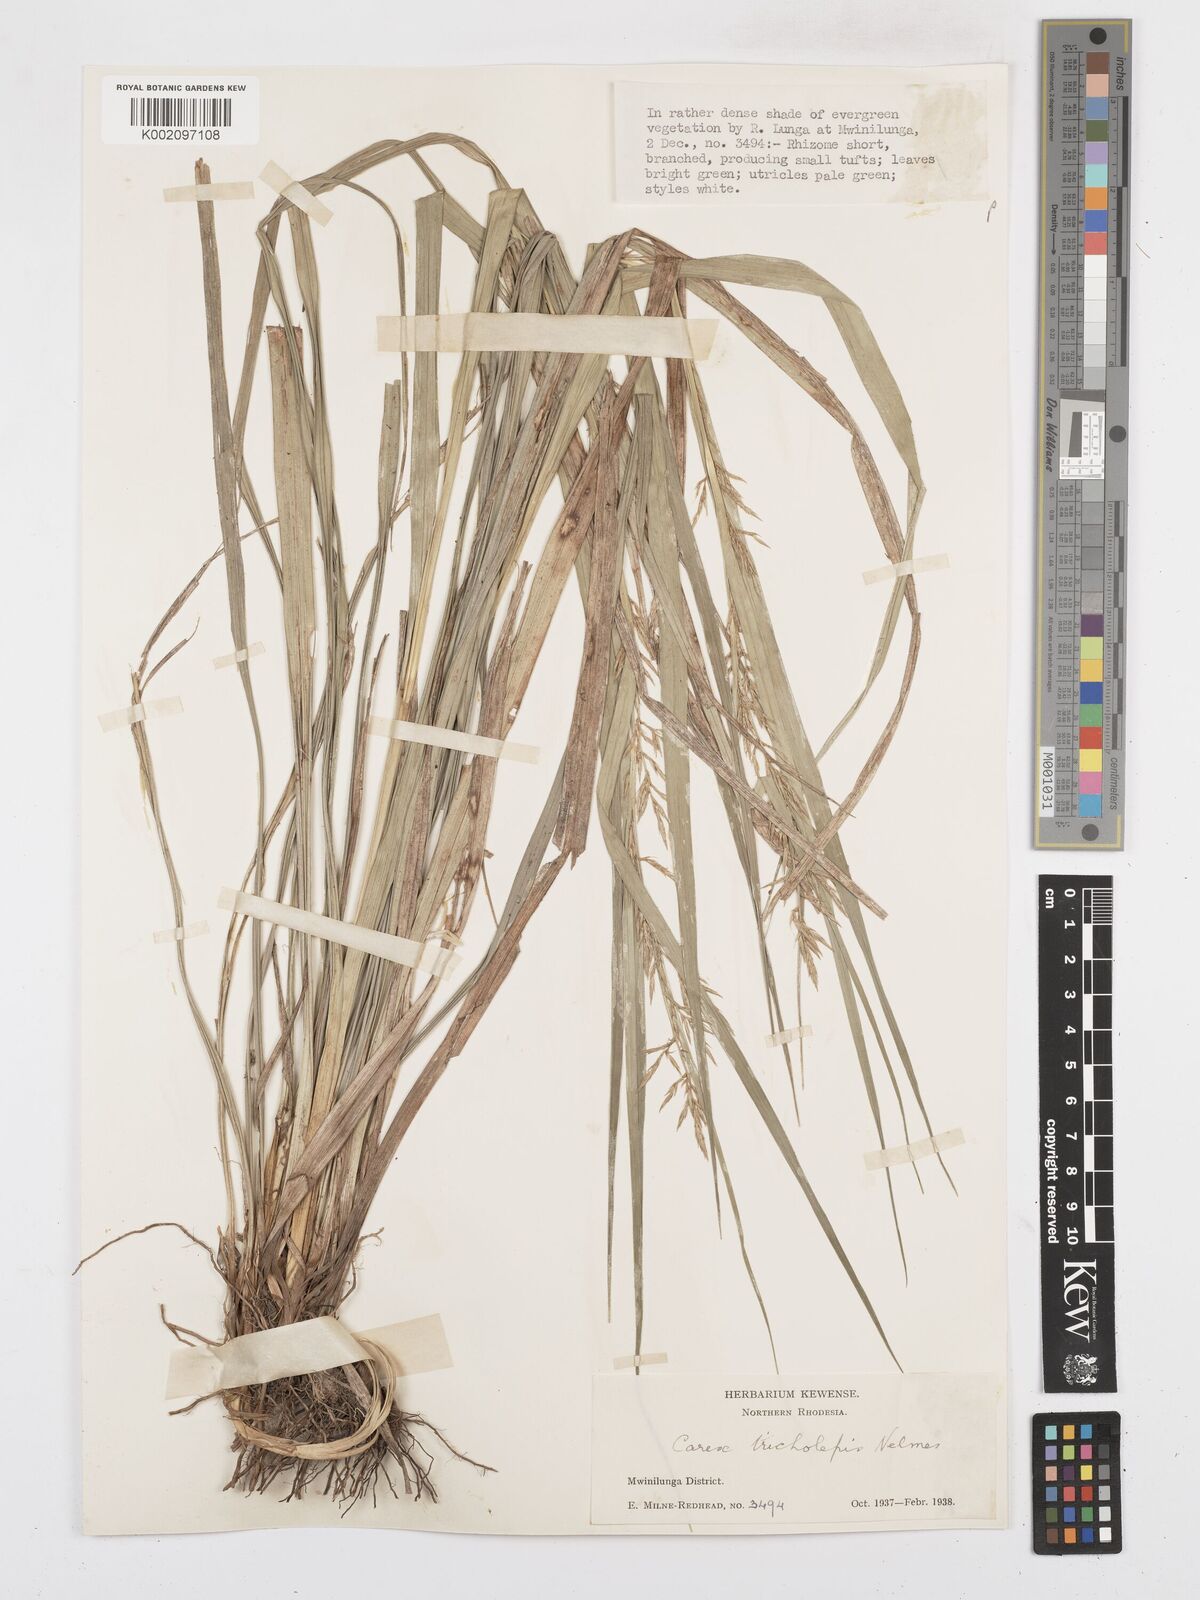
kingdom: Plantae
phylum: Tracheophyta
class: Liliopsida
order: Poales
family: Cyperaceae
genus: Carex
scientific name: Carex tricholepis
